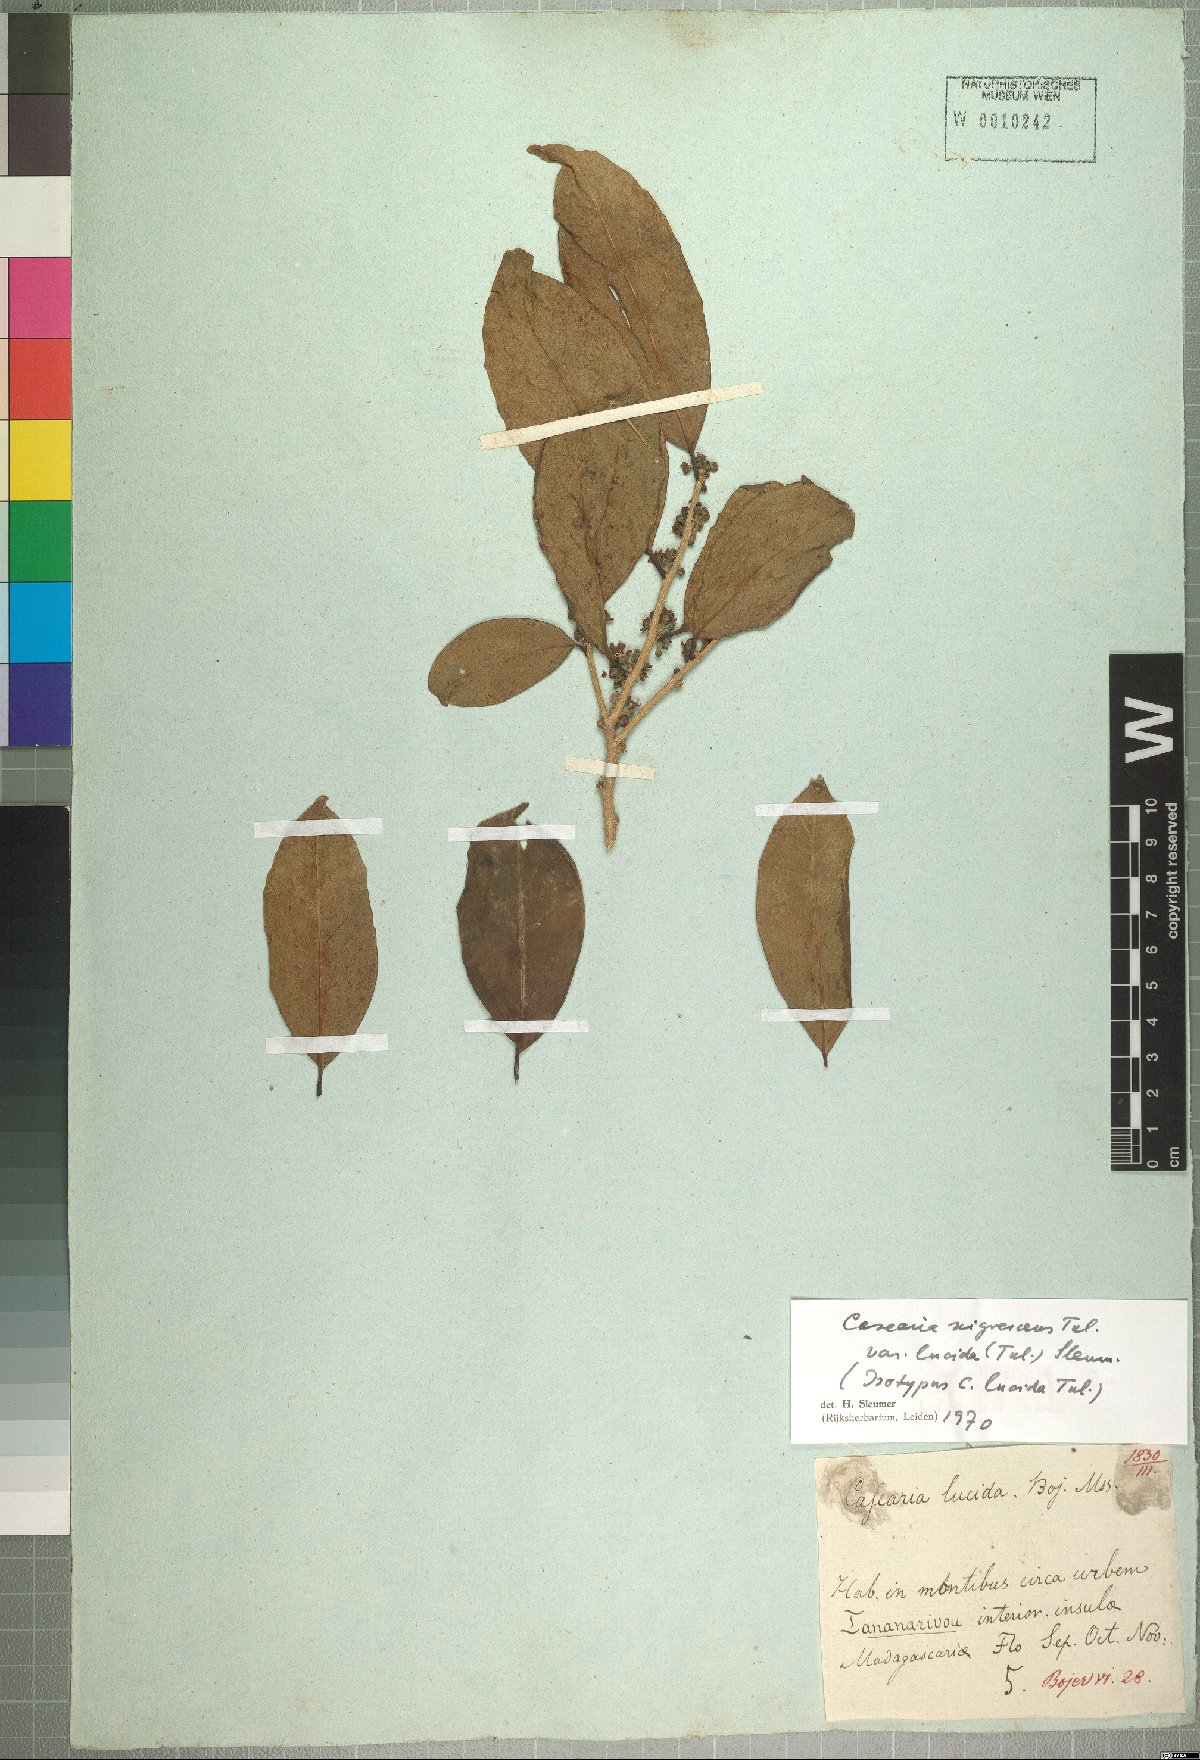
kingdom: Plantae
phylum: Tracheophyta
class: Magnoliopsida
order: Malpighiales
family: Salicaceae
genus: Casearia
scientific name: Casearia nigrescens
